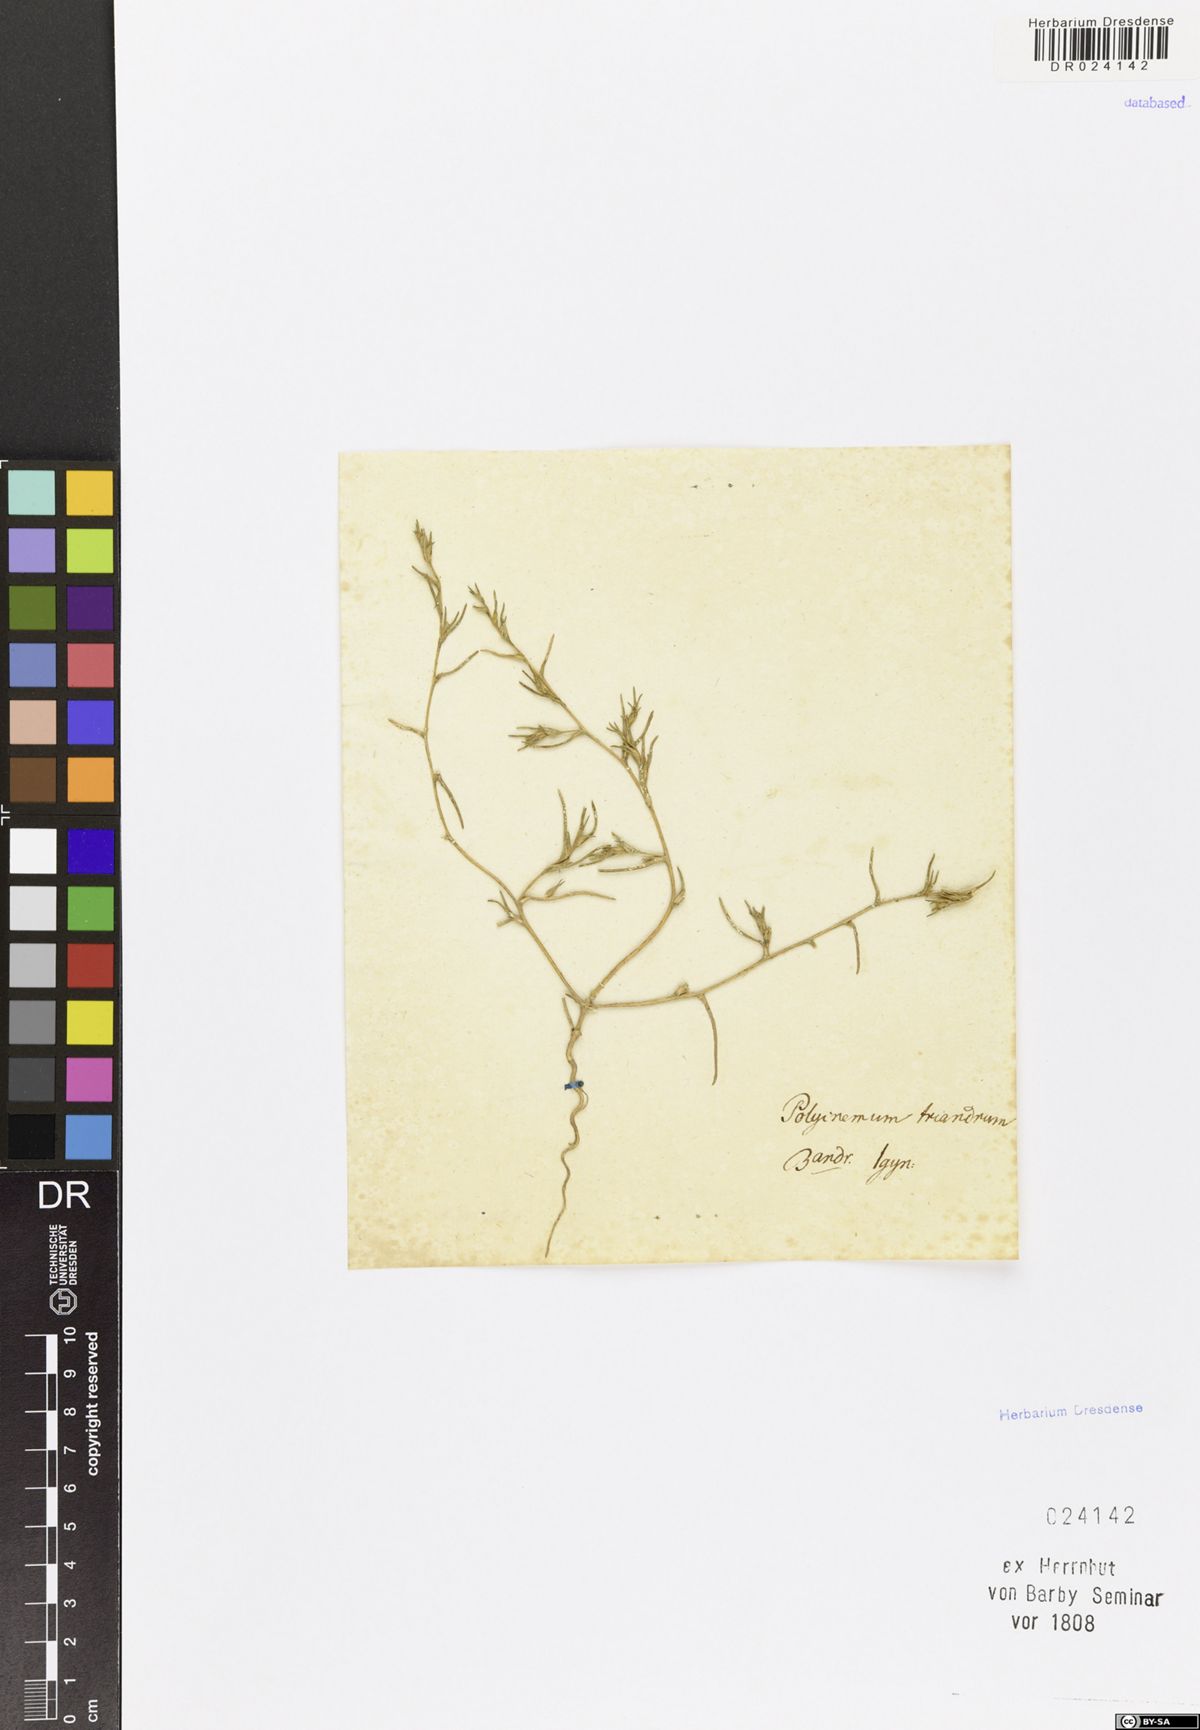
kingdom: Plantae
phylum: Tracheophyta
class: Magnoliopsida
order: Caryophyllales
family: Amaranthaceae
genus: Petrosimonia
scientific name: Petrosimonia triandra
